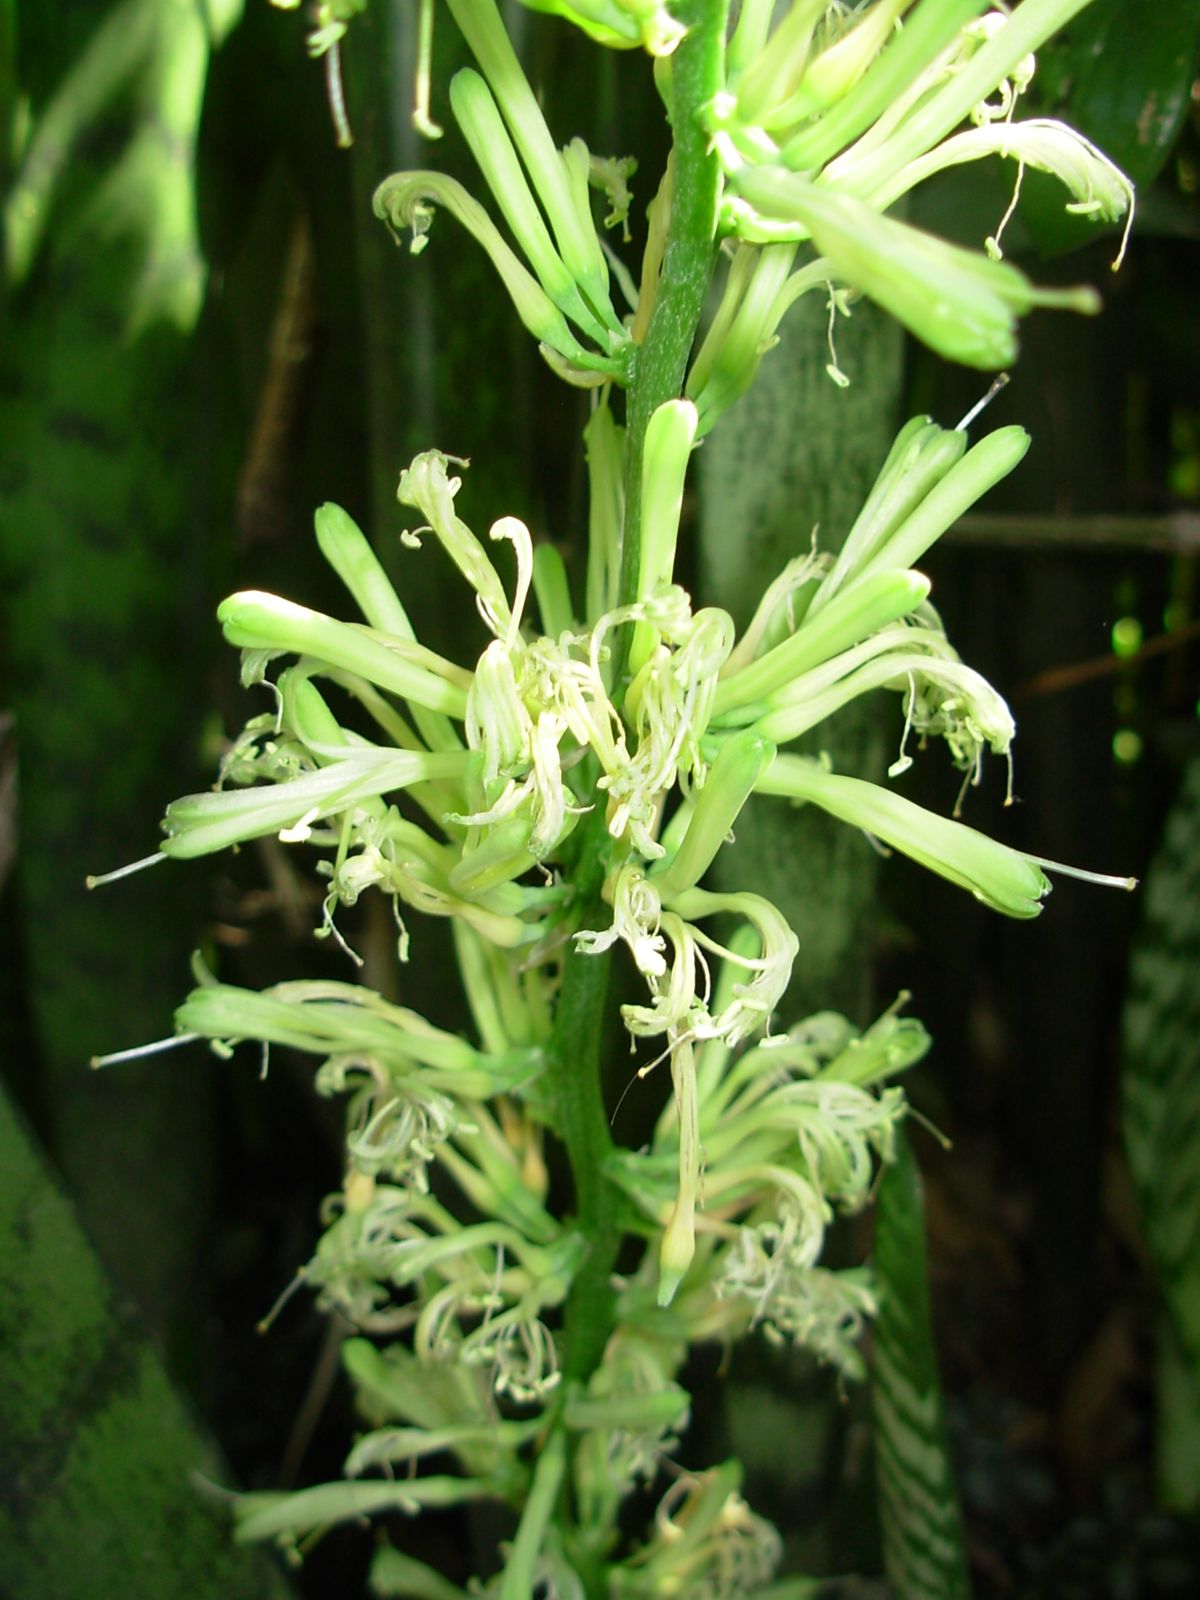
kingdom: Plantae
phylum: Tracheophyta
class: Liliopsida
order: Asparagales
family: Asparagaceae
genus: Dracaena
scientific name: Dracaena trifasciata
